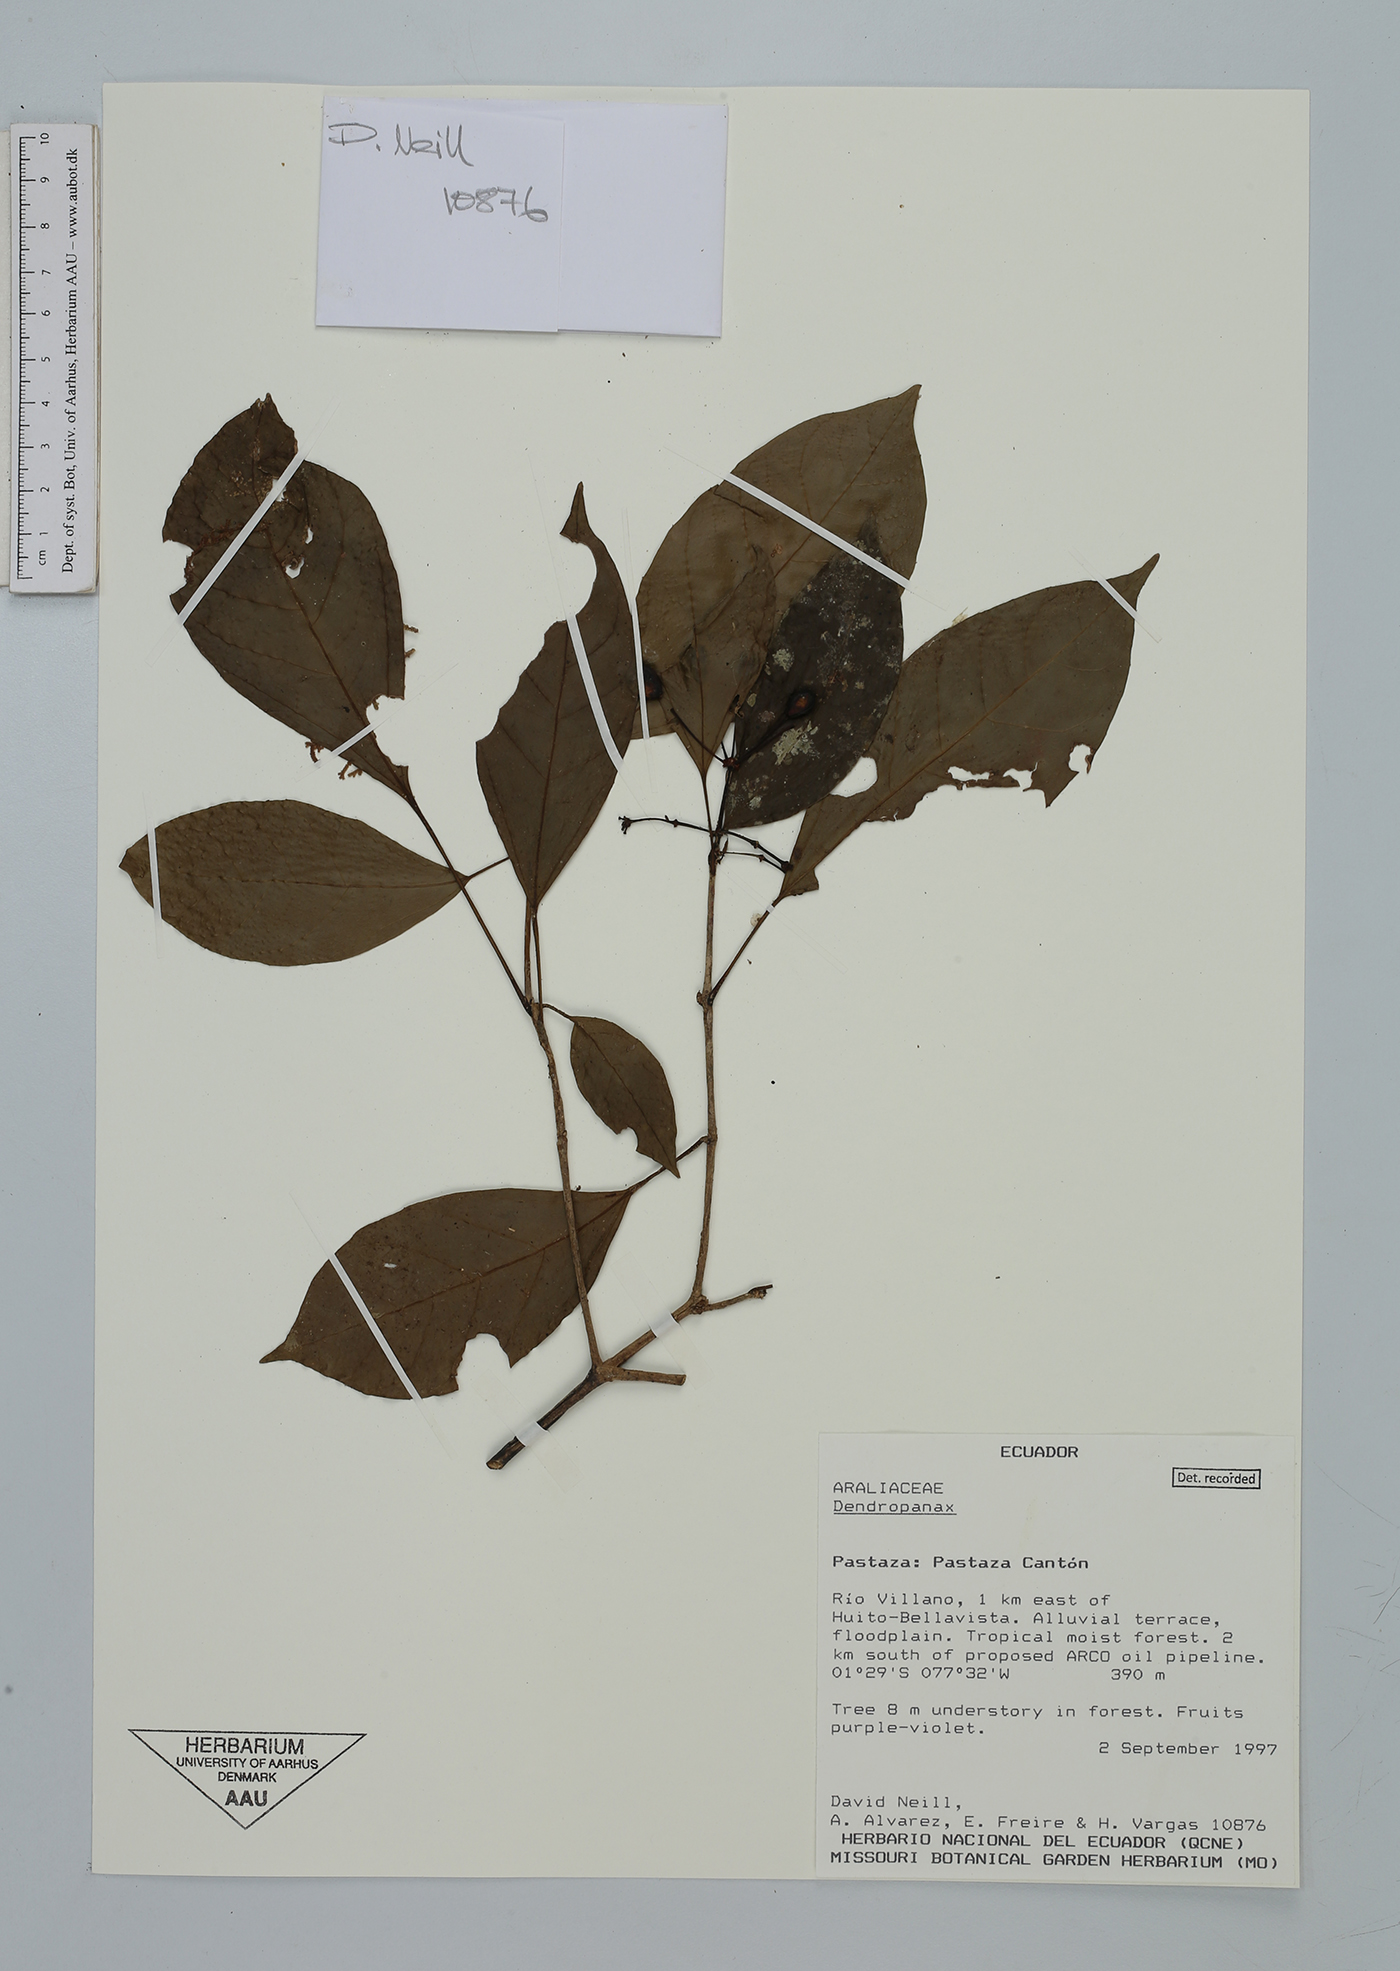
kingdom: Plantae
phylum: Tracheophyta
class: Magnoliopsida
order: Apiales
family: Araliaceae
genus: Dendropanax
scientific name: Dendropanax
